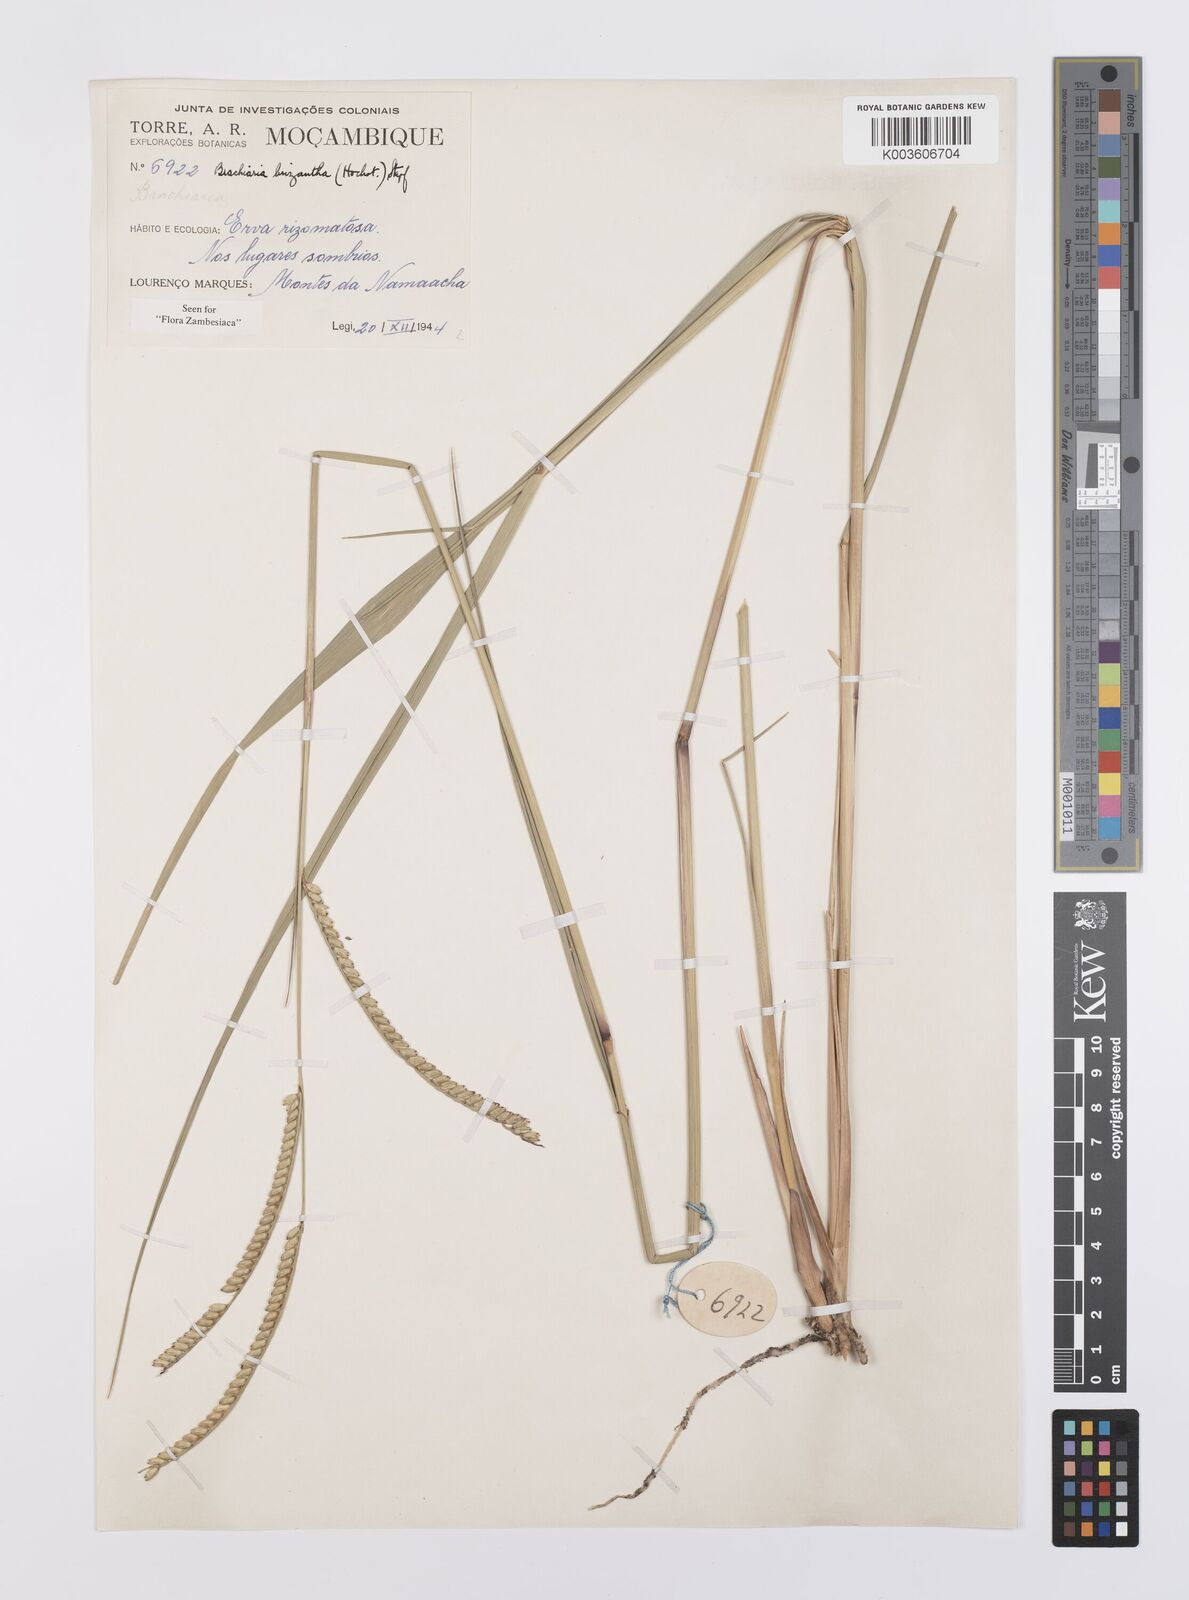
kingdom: Plantae
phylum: Tracheophyta
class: Liliopsida
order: Poales
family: Poaceae
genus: Urochloa
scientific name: Urochloa brizantha
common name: Palisade signalgrass
